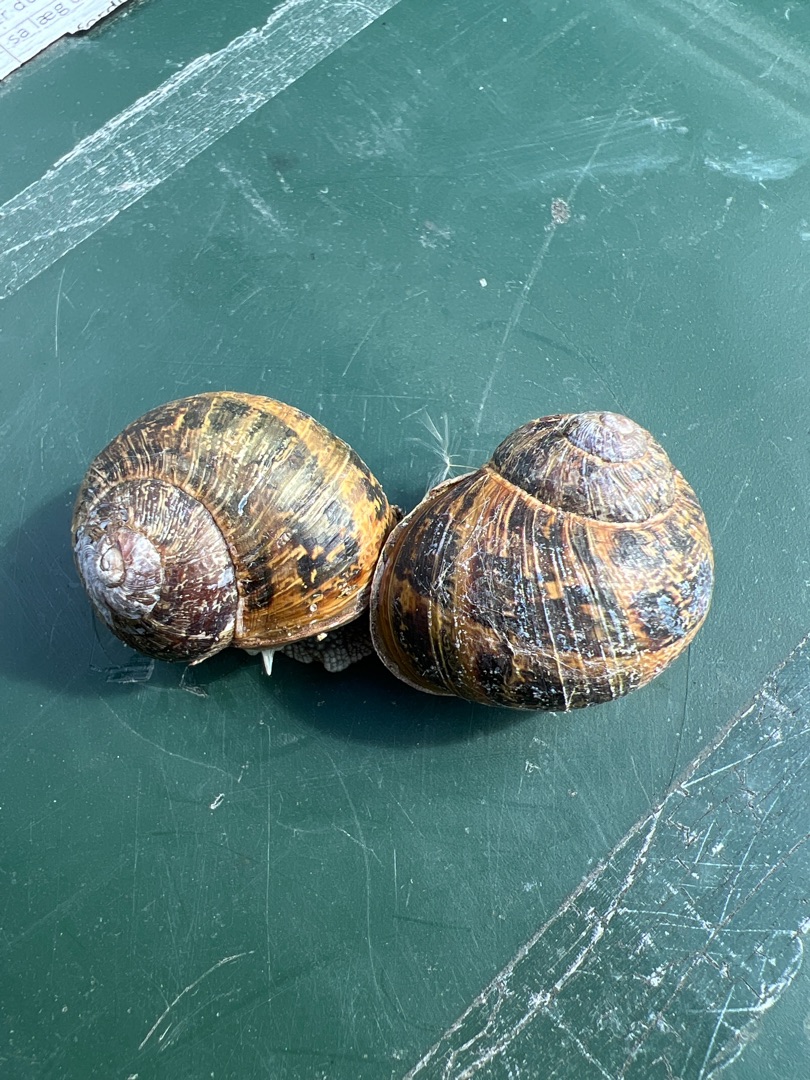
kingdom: Animalia
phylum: Mollusca
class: Gastropoda
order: Stylommatophora
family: Helicidae
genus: Cornu
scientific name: Cornu aspersum
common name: Plettet voldsnegl
